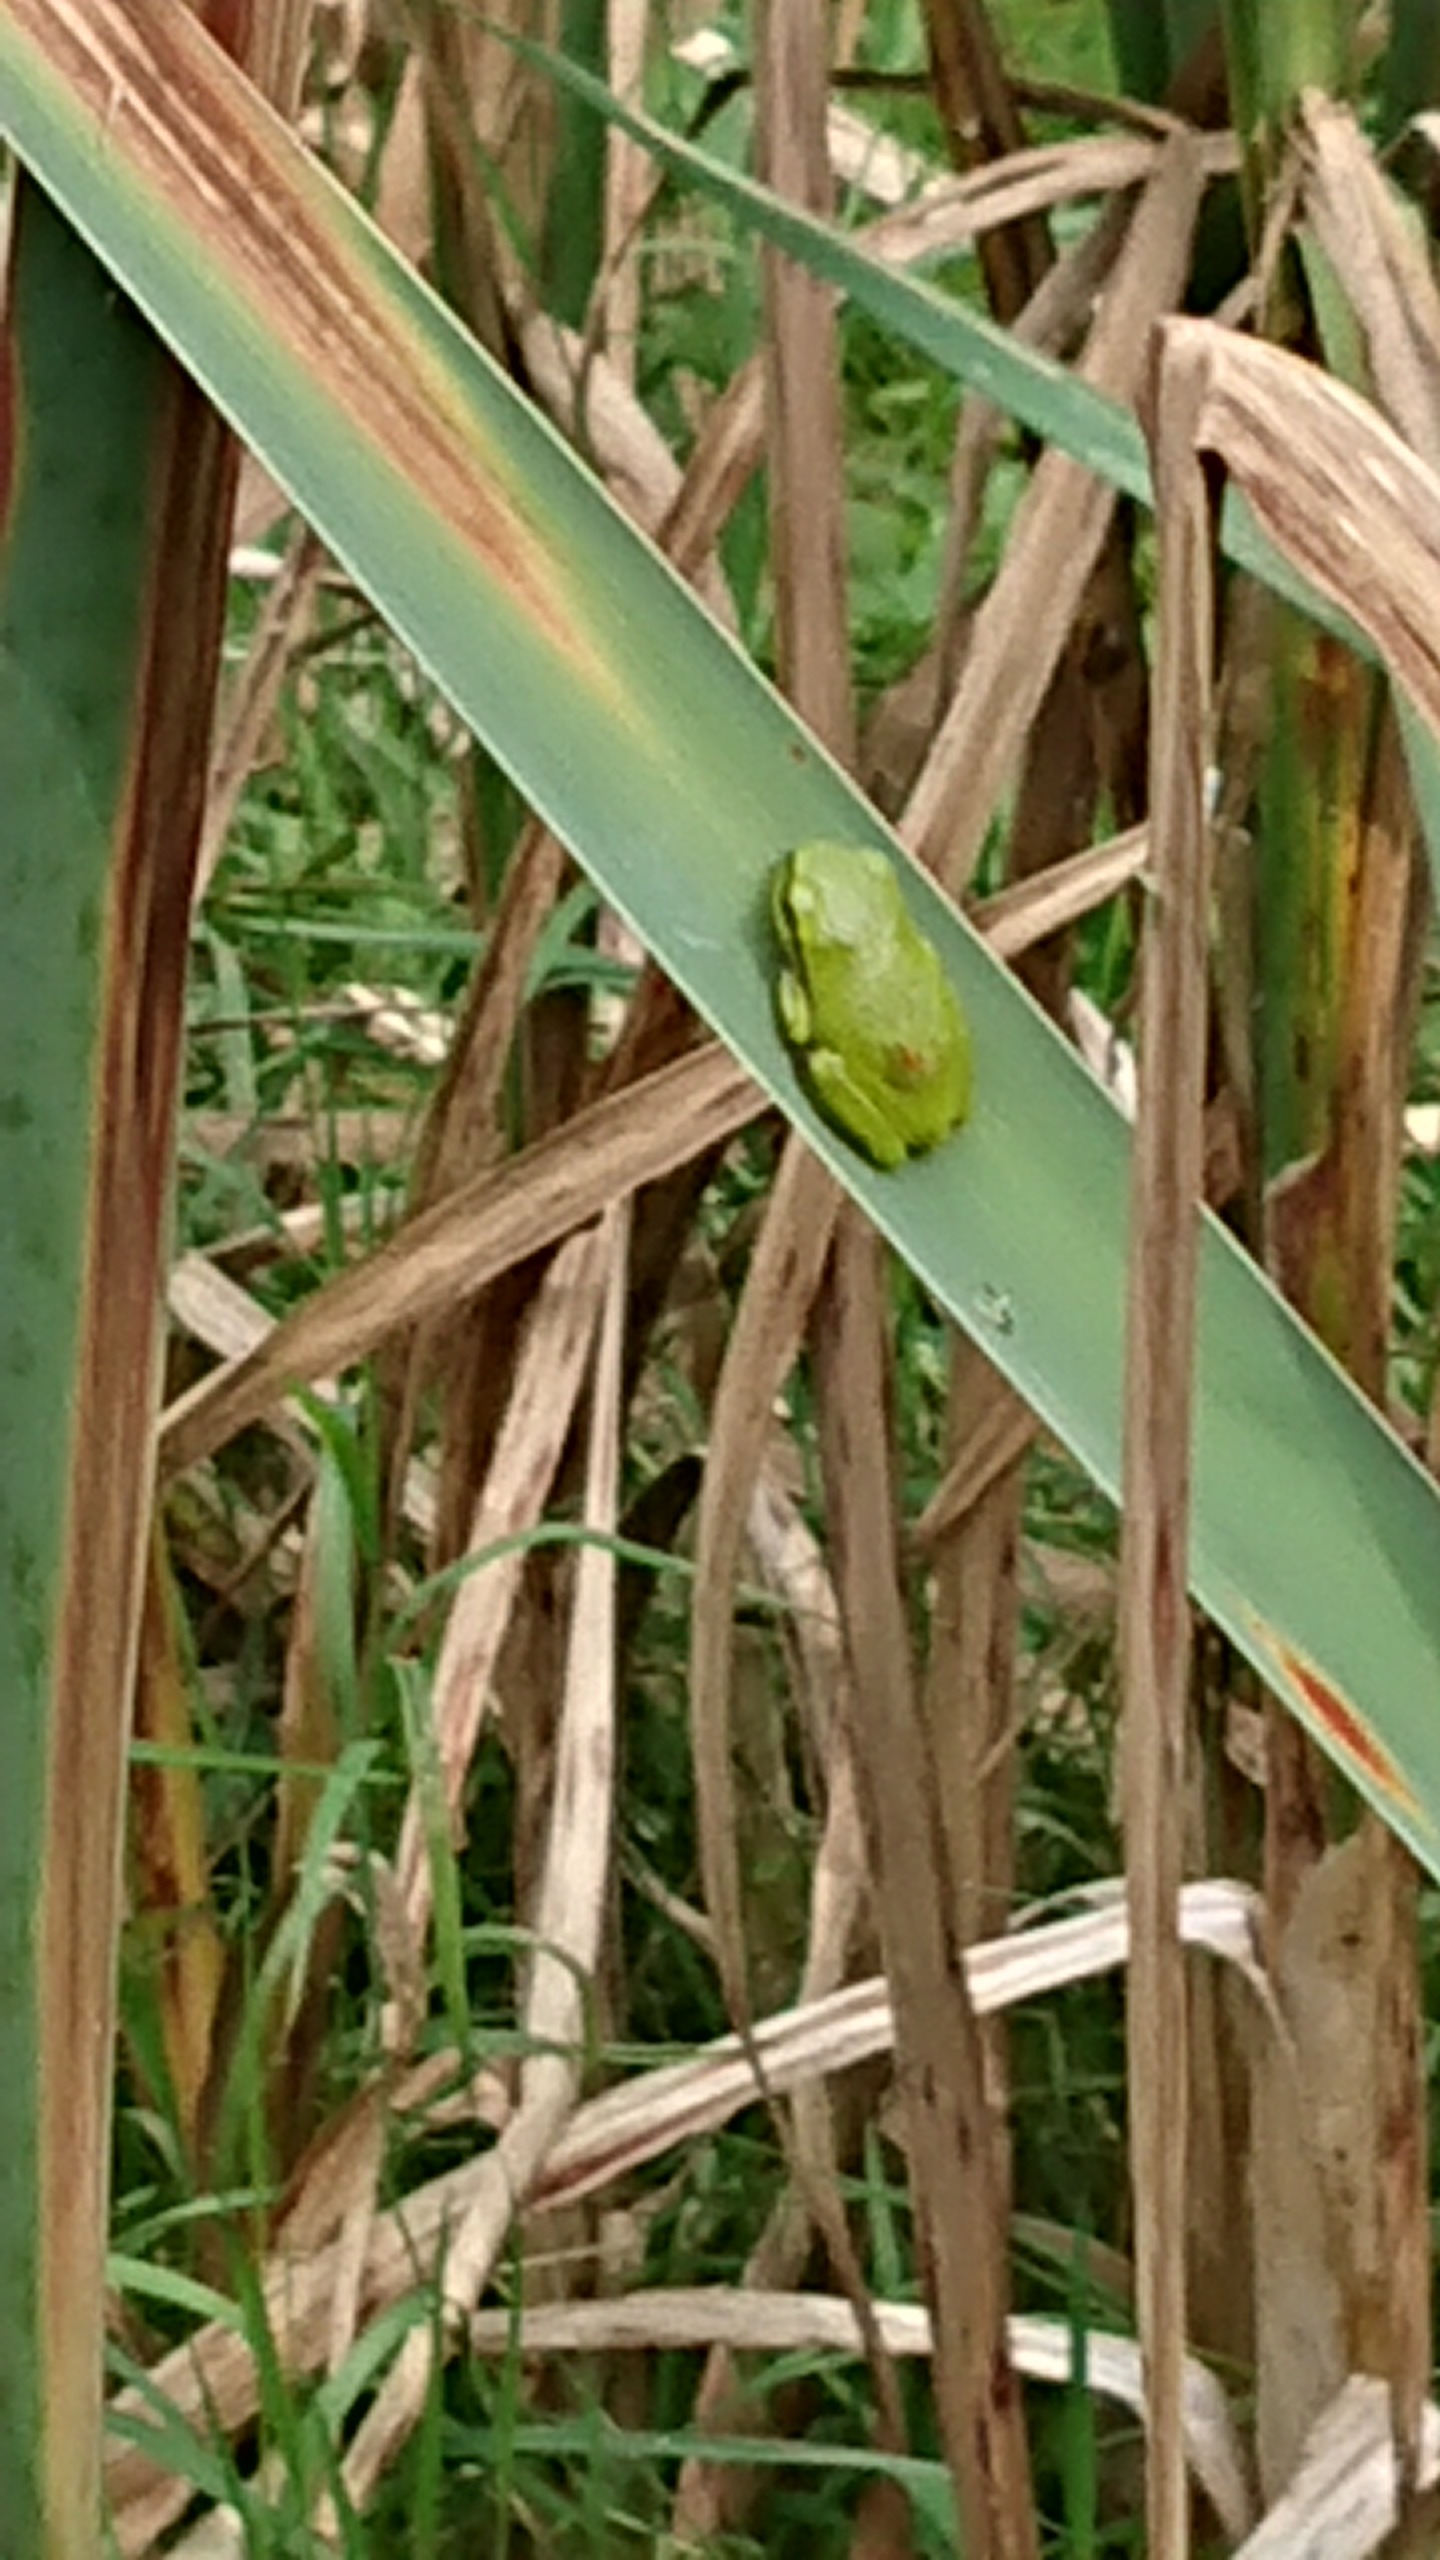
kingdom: Animalia
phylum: Chordata
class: Amphibia
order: Anura
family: Hylidae
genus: Hyla
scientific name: Hyla arborea
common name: Løvfrø
